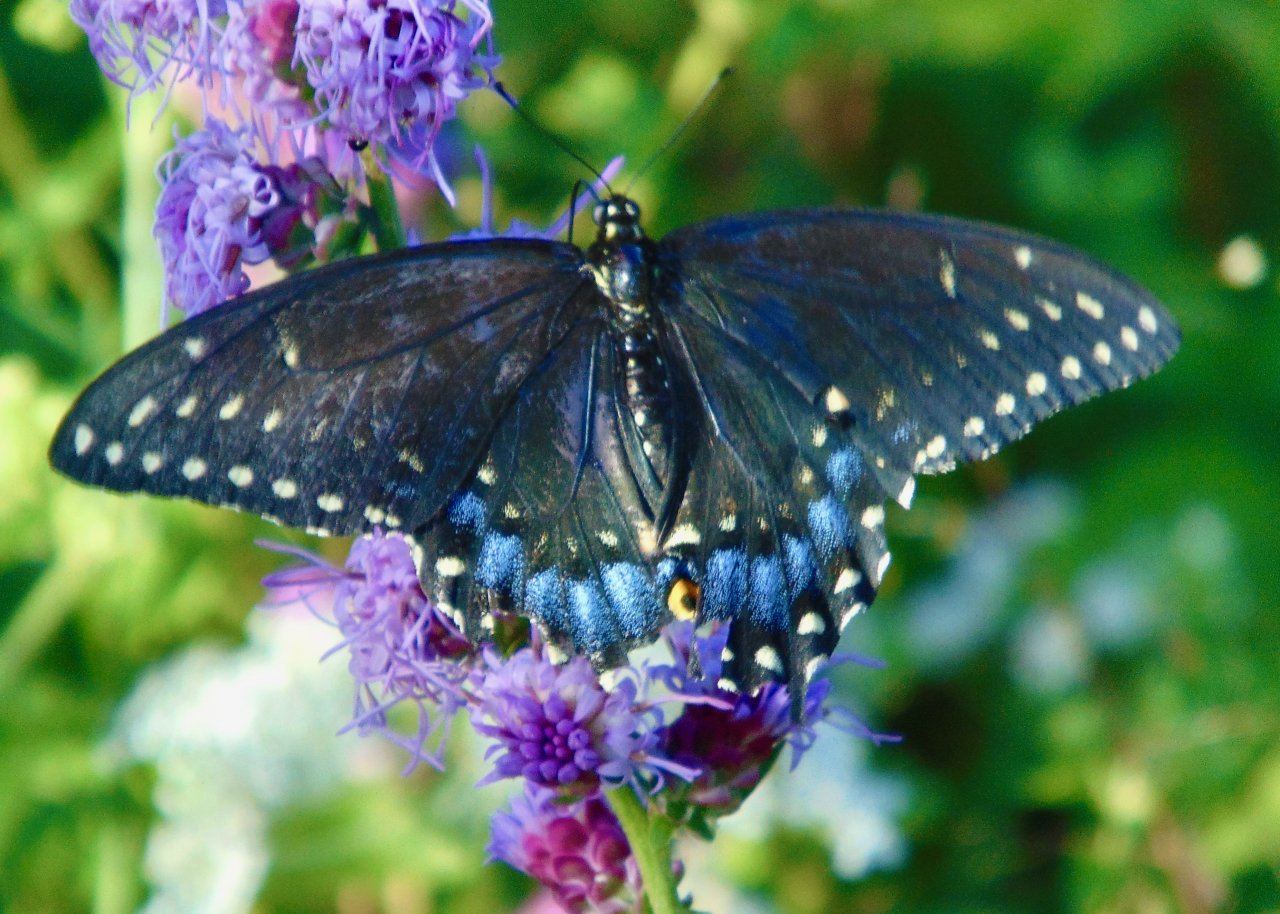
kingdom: Animalia
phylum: Arthropoda
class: Insecta
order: Lepidoptera
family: Papilionidae
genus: Papilio
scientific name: Papilio polyxenes
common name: Black Swallowtail
